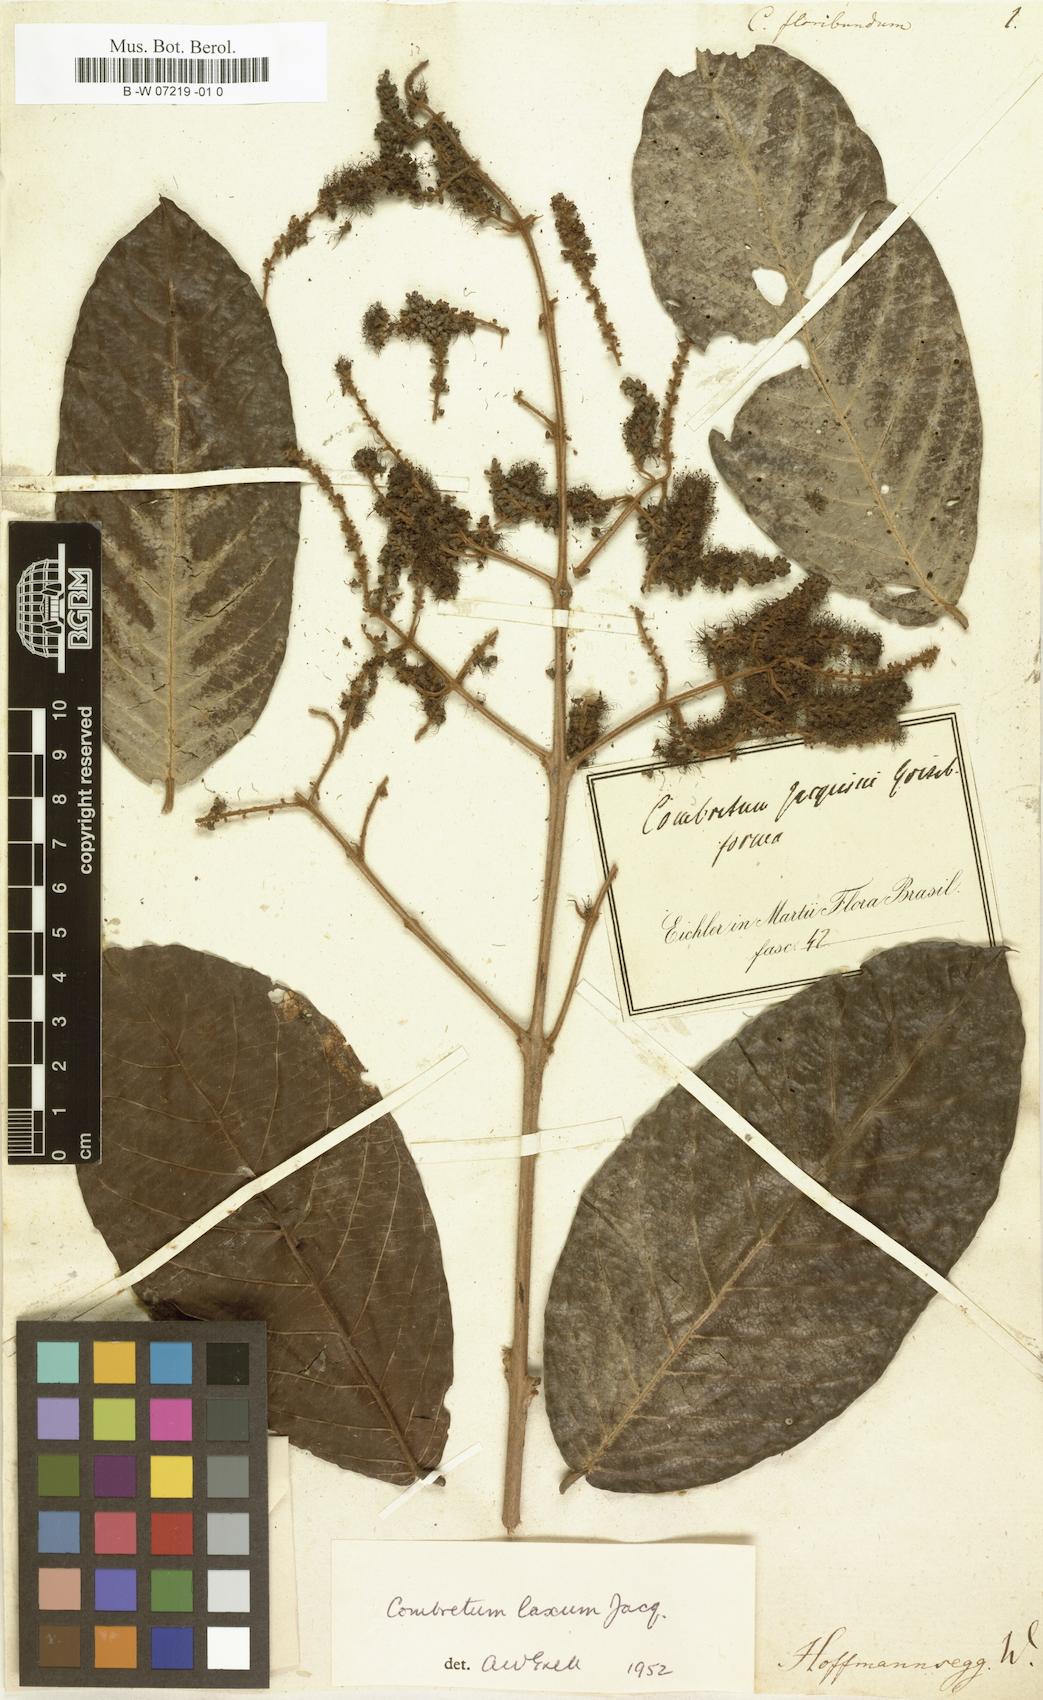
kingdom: Plantae
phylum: Tracheophyta
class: Magnoliopsida
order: Myrtales
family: Combretaceae
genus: Combretum
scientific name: Combretum
